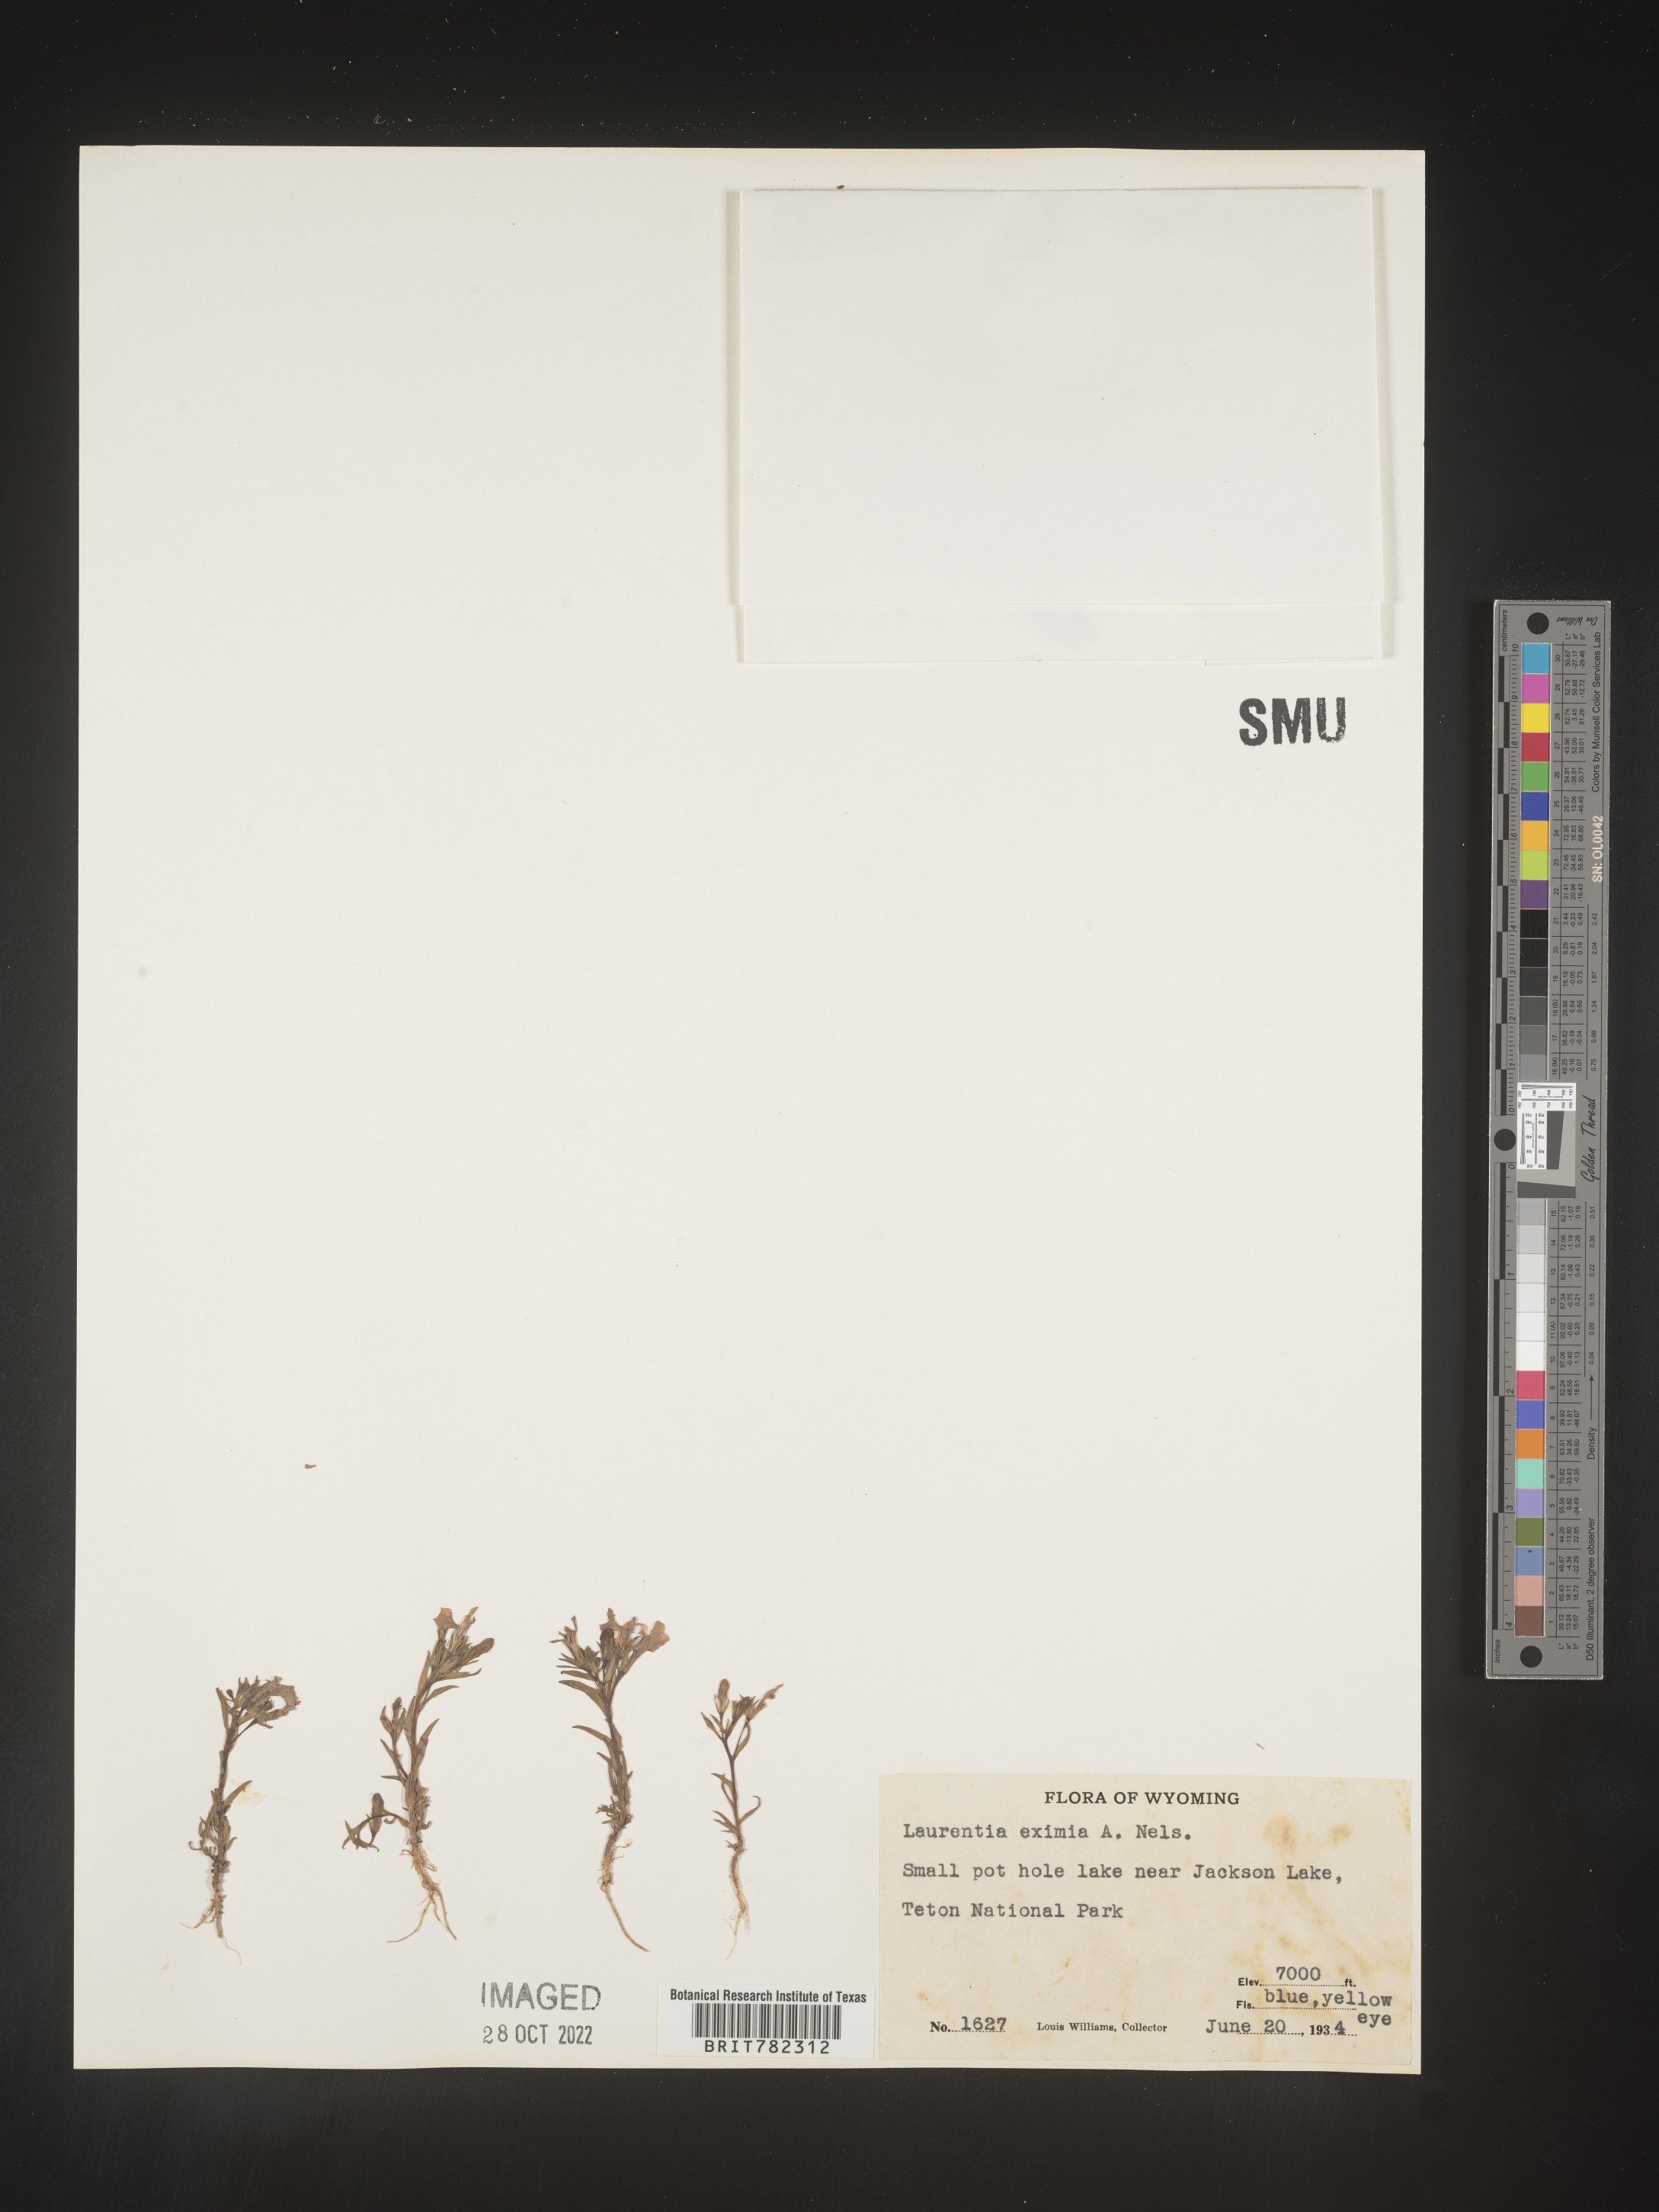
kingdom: Plantae
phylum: Tracheophyta
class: Magnoliopsida
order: Asterales
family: Campanulaceae
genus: Lobelia
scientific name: Lobelia Laurentia michelii
